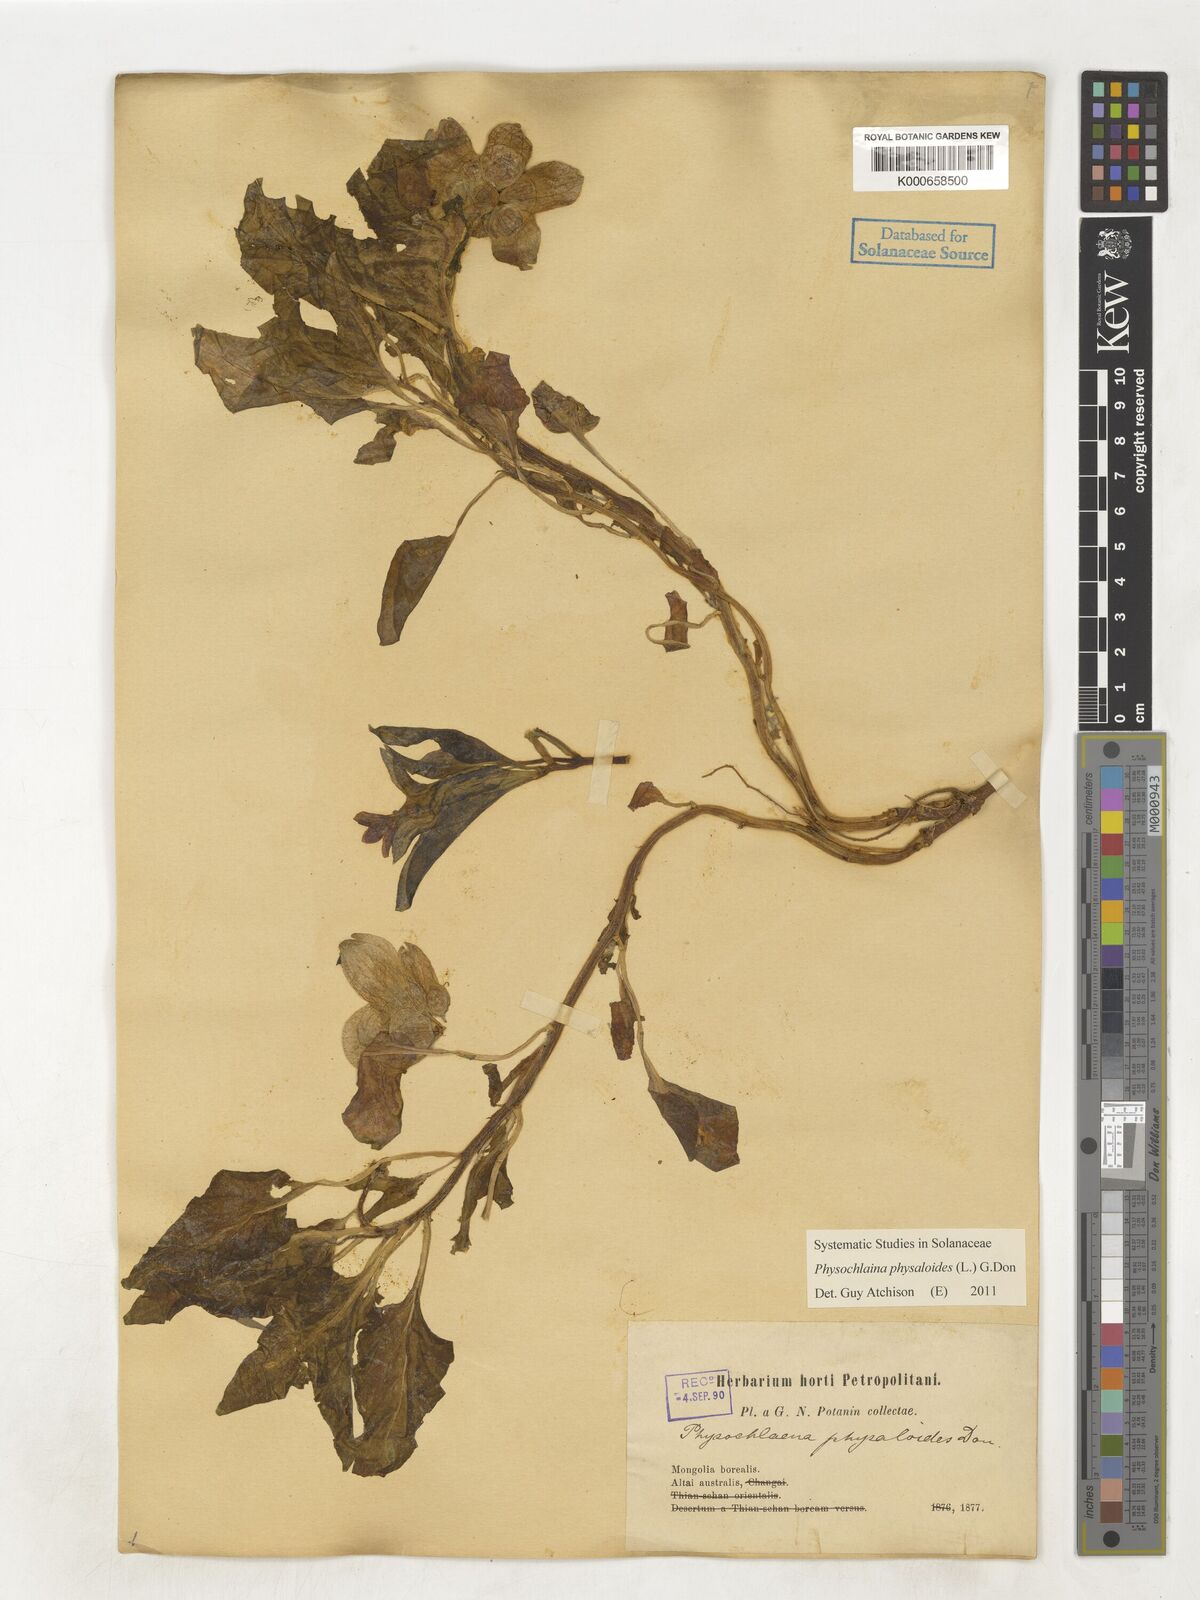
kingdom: Plantae
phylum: Tracheophyta
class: Magnoliopsida
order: Solanales
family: Solanaceae
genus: Physochlaina
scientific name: Physochlaina physaloides
